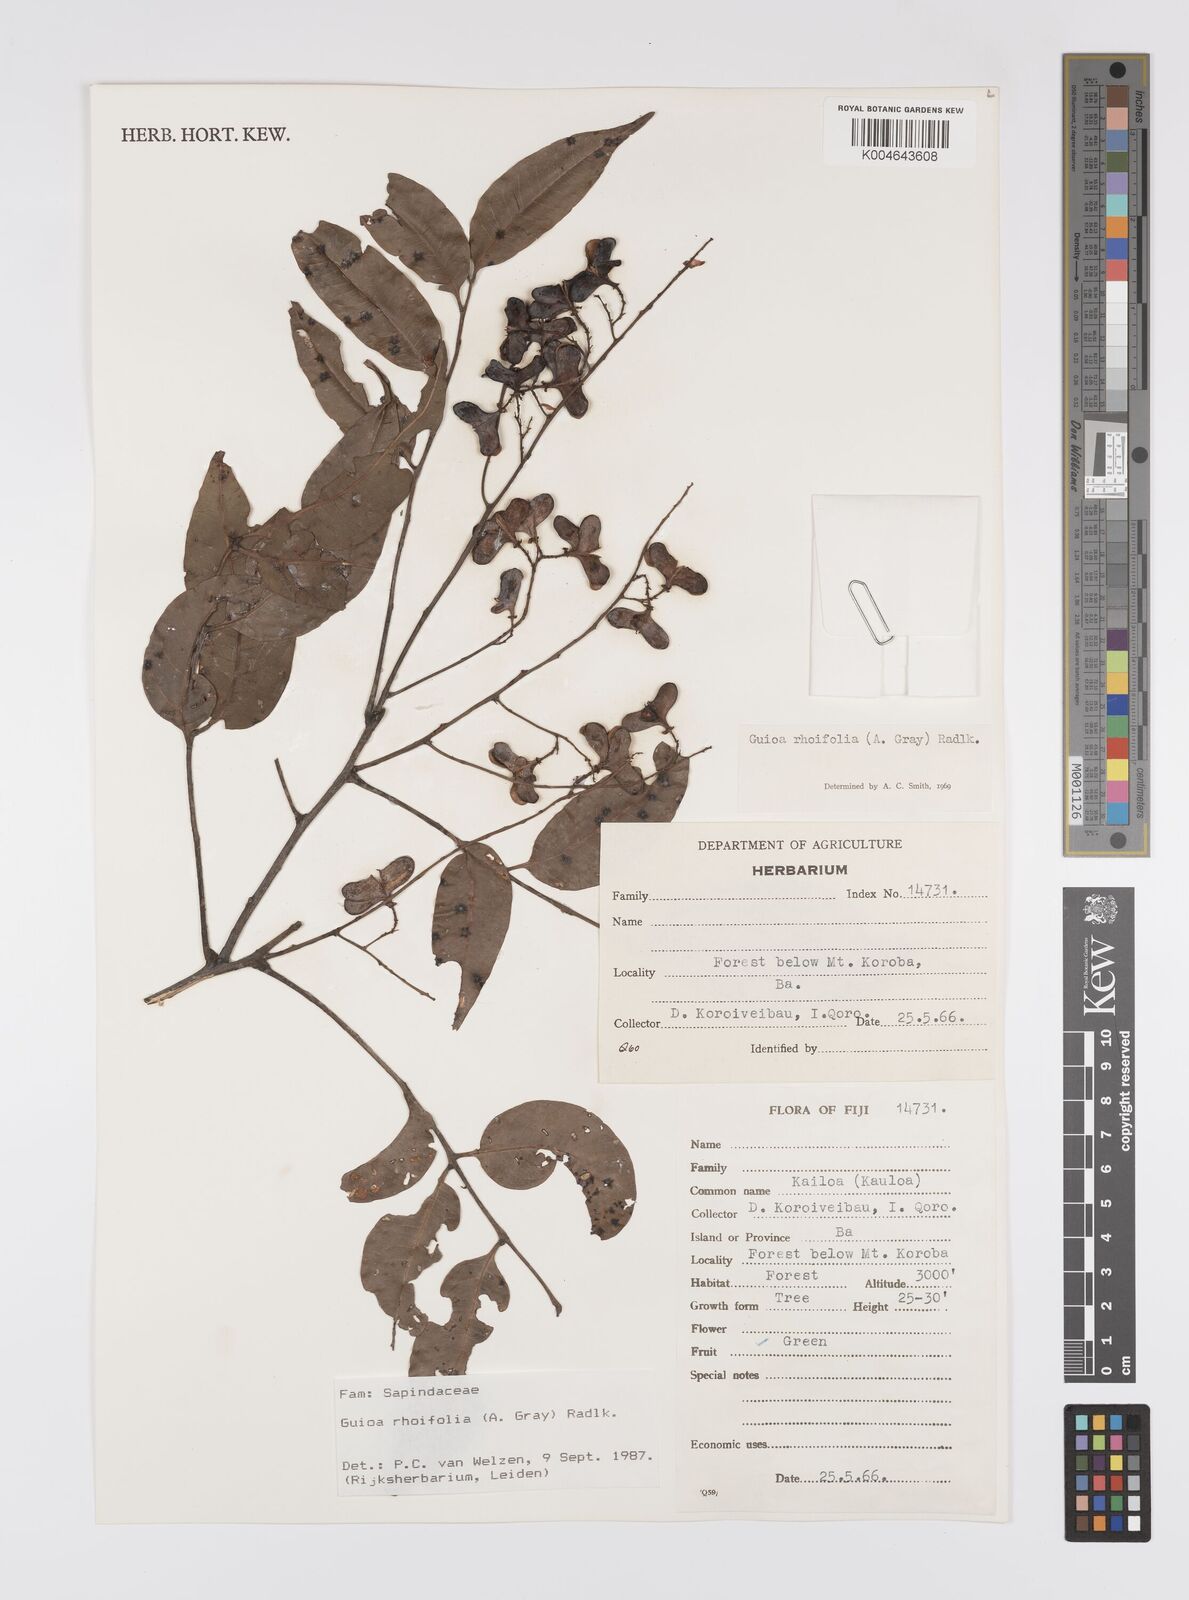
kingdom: Plantae
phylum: Tracheophyta
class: Magnoliopsida
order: Sapindales
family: Sapindaceae
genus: Guioa
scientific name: Guioa rhoifolia
